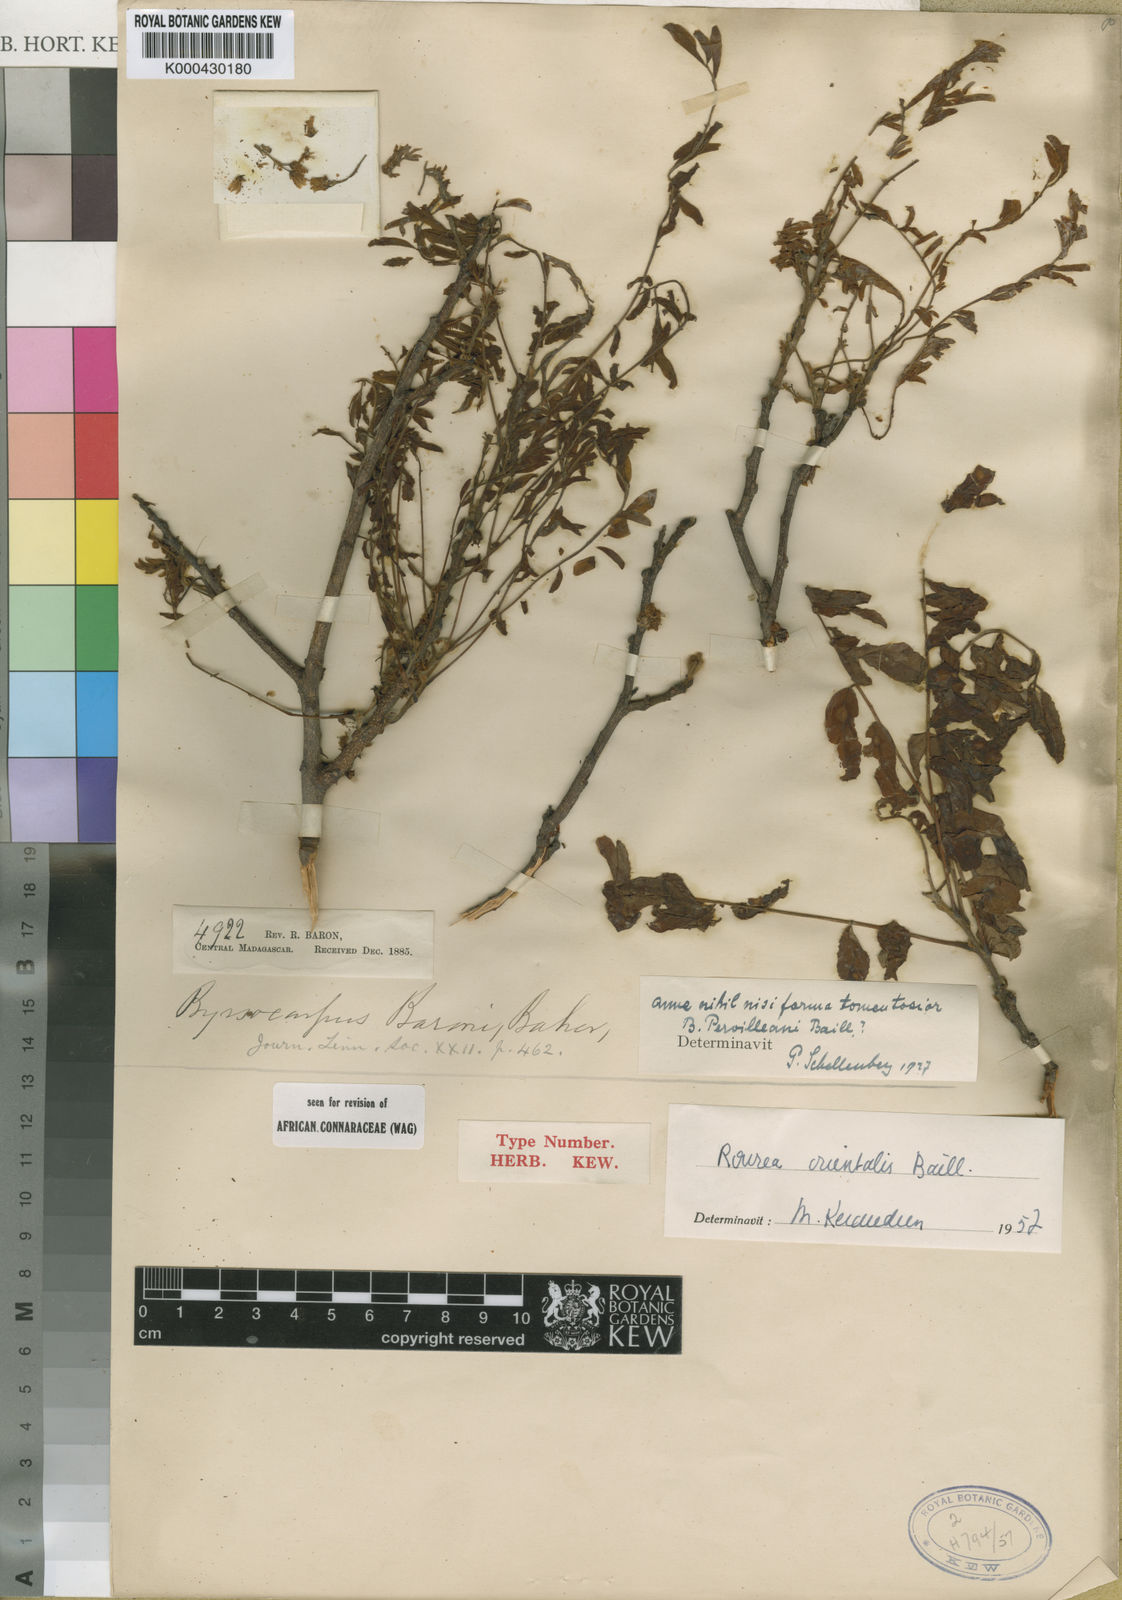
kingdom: Plantae
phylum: Tracheophyta
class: Magnoliopsida
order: Oxalidales
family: Connaraceae
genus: Rourea
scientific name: Rourea orientalis
